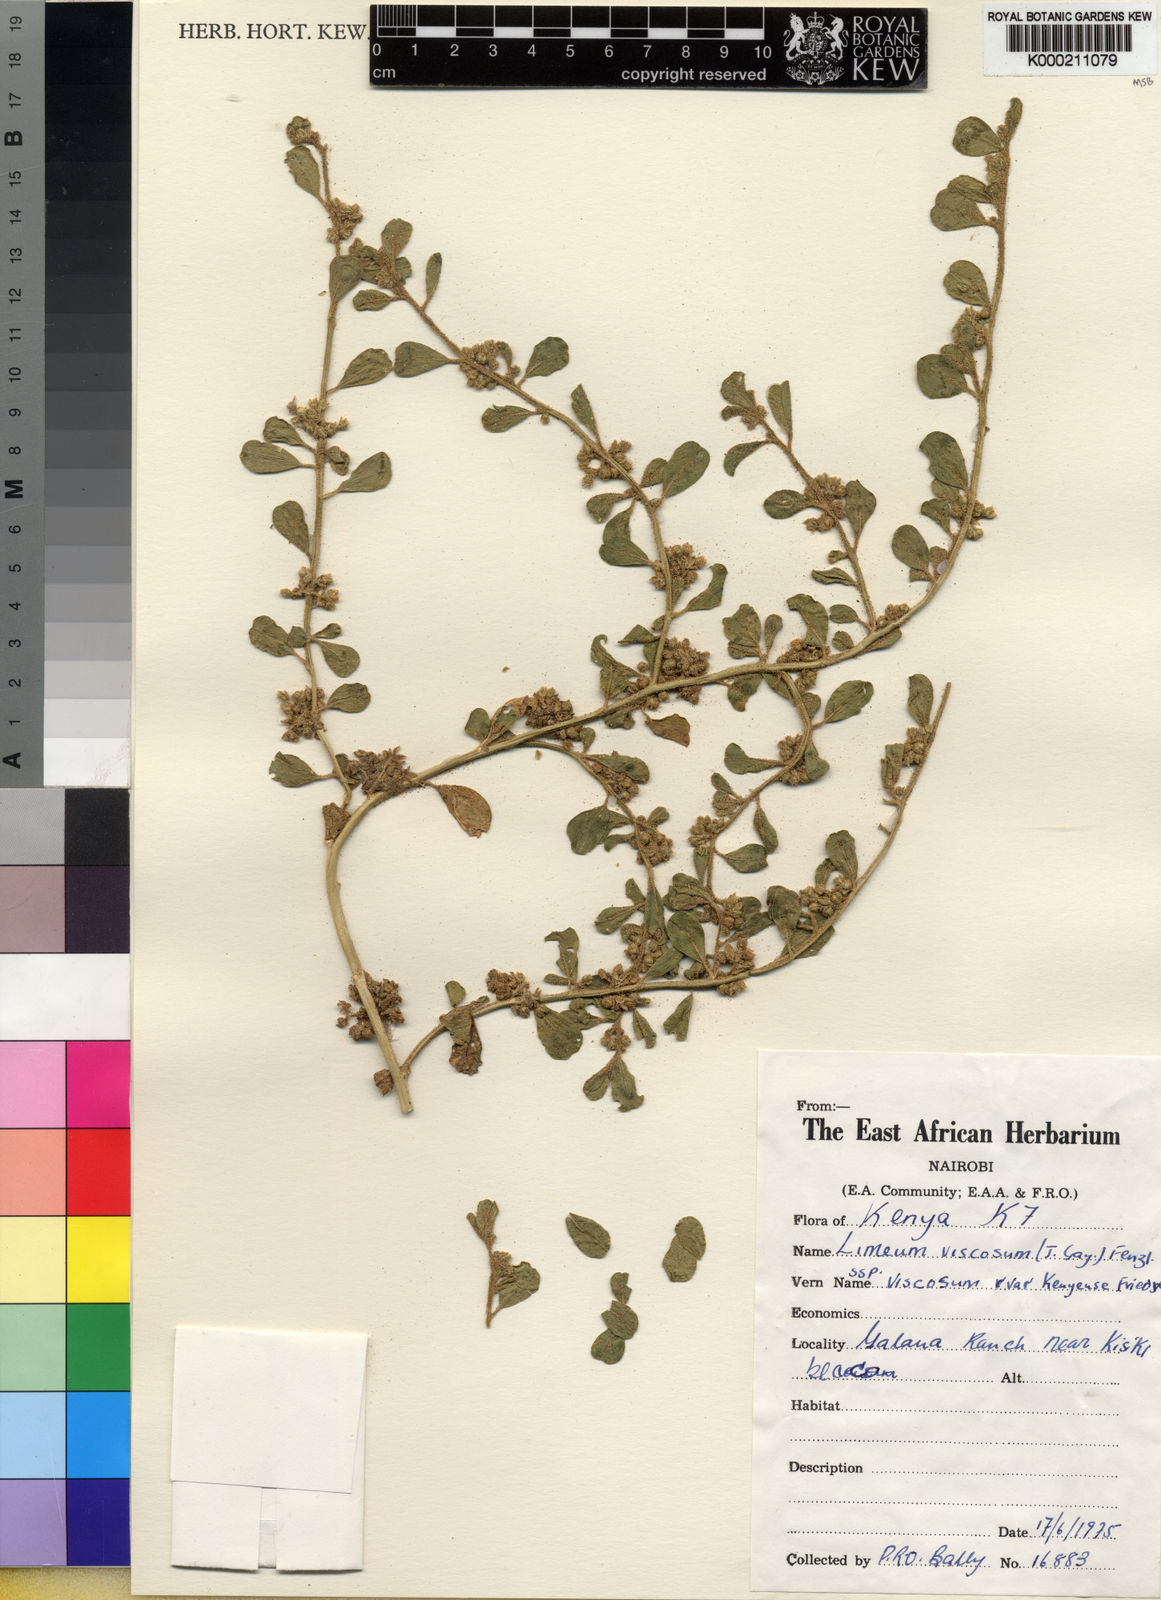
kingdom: Plantae
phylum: Tracheophyta
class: Magnoliopsida
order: Caryophyllales
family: Limeaceae
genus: Limeum
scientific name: Limeum viscosum
